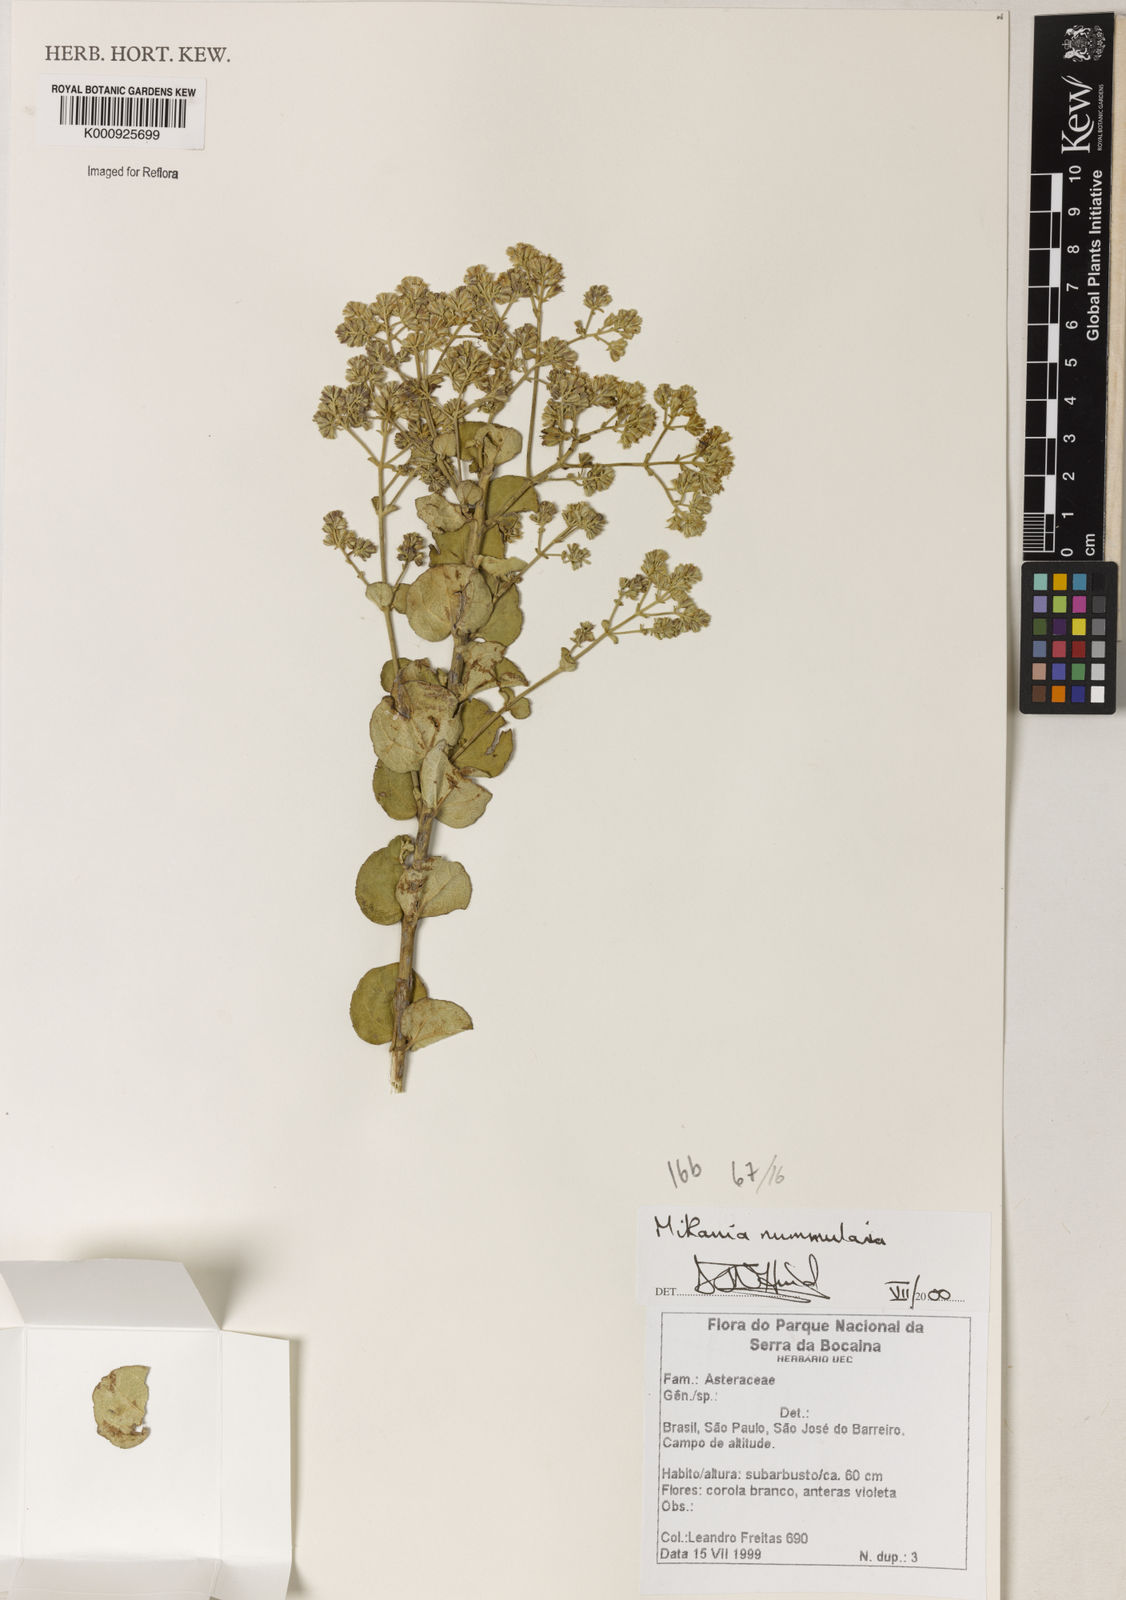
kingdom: Plantae
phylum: Tracheophyta
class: Magnoliopsida
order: Asterales
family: Asteraceae
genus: Mikania
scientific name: Mikania nummularia
